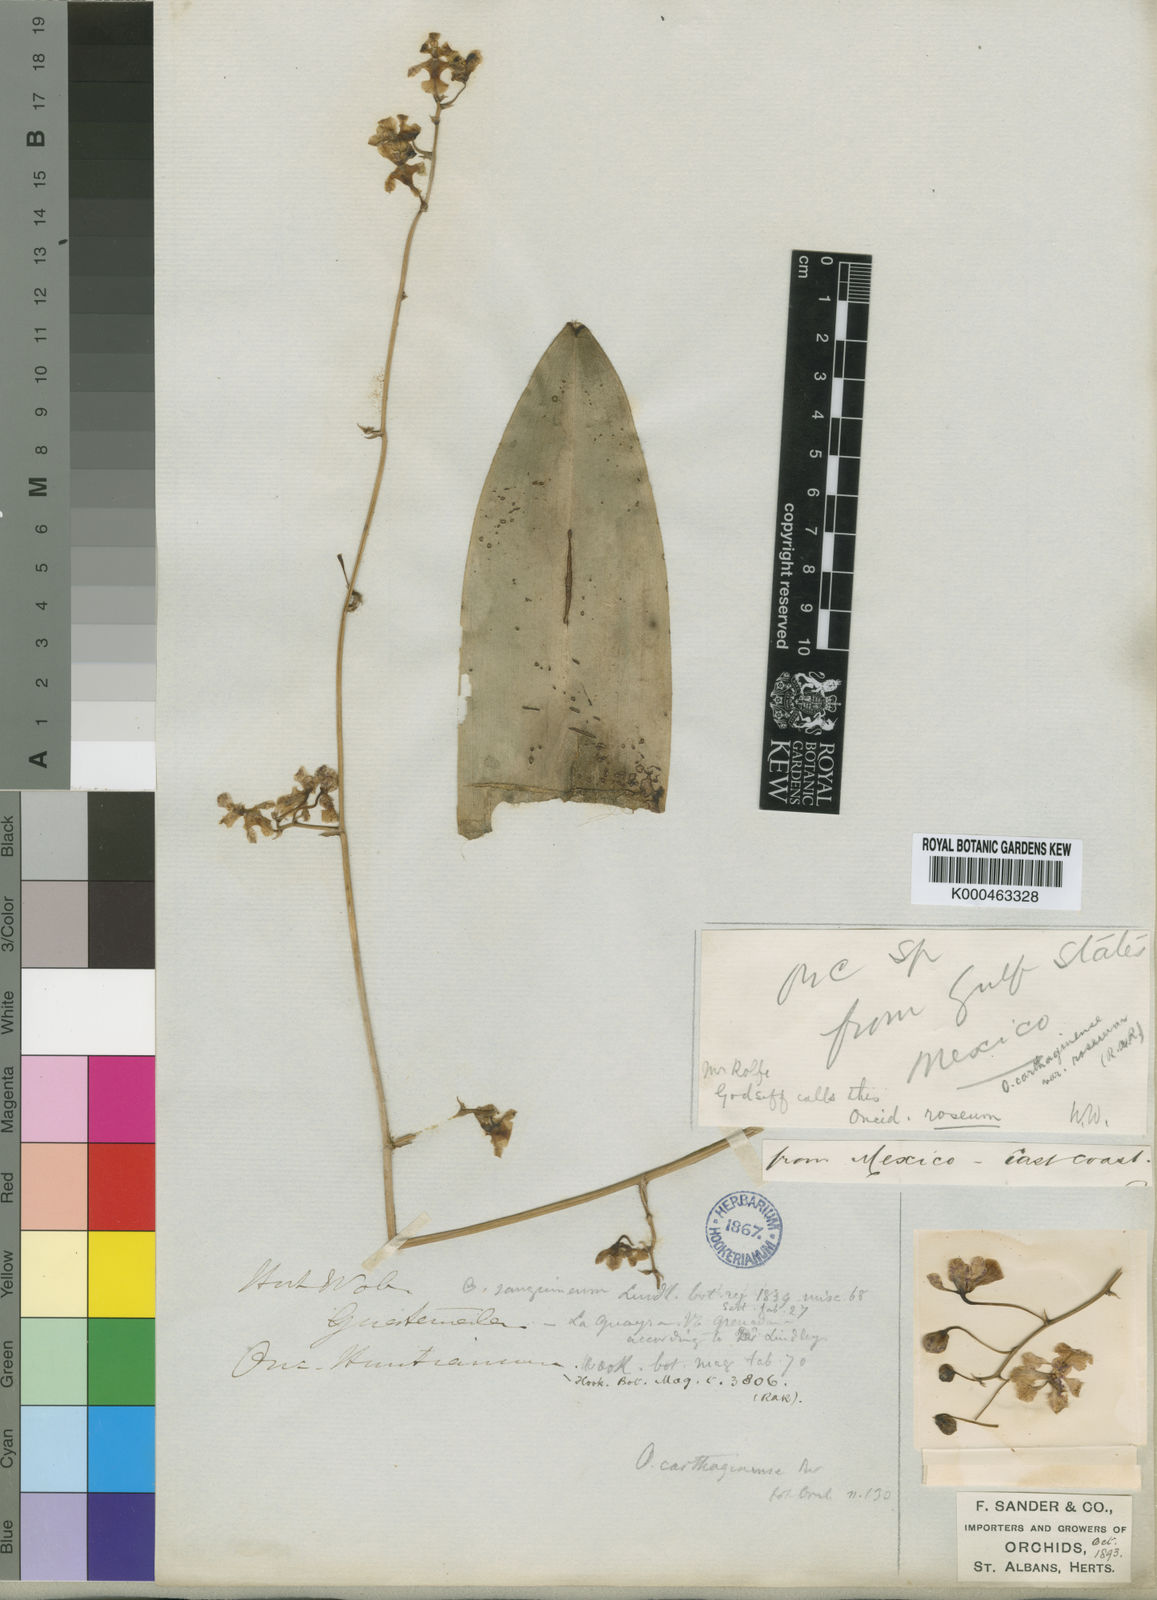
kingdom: Plantae
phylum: Tracheophyta
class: Liliopsida
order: Asparagales
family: Orchidaceae
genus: Oncidium
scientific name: Oncidium
